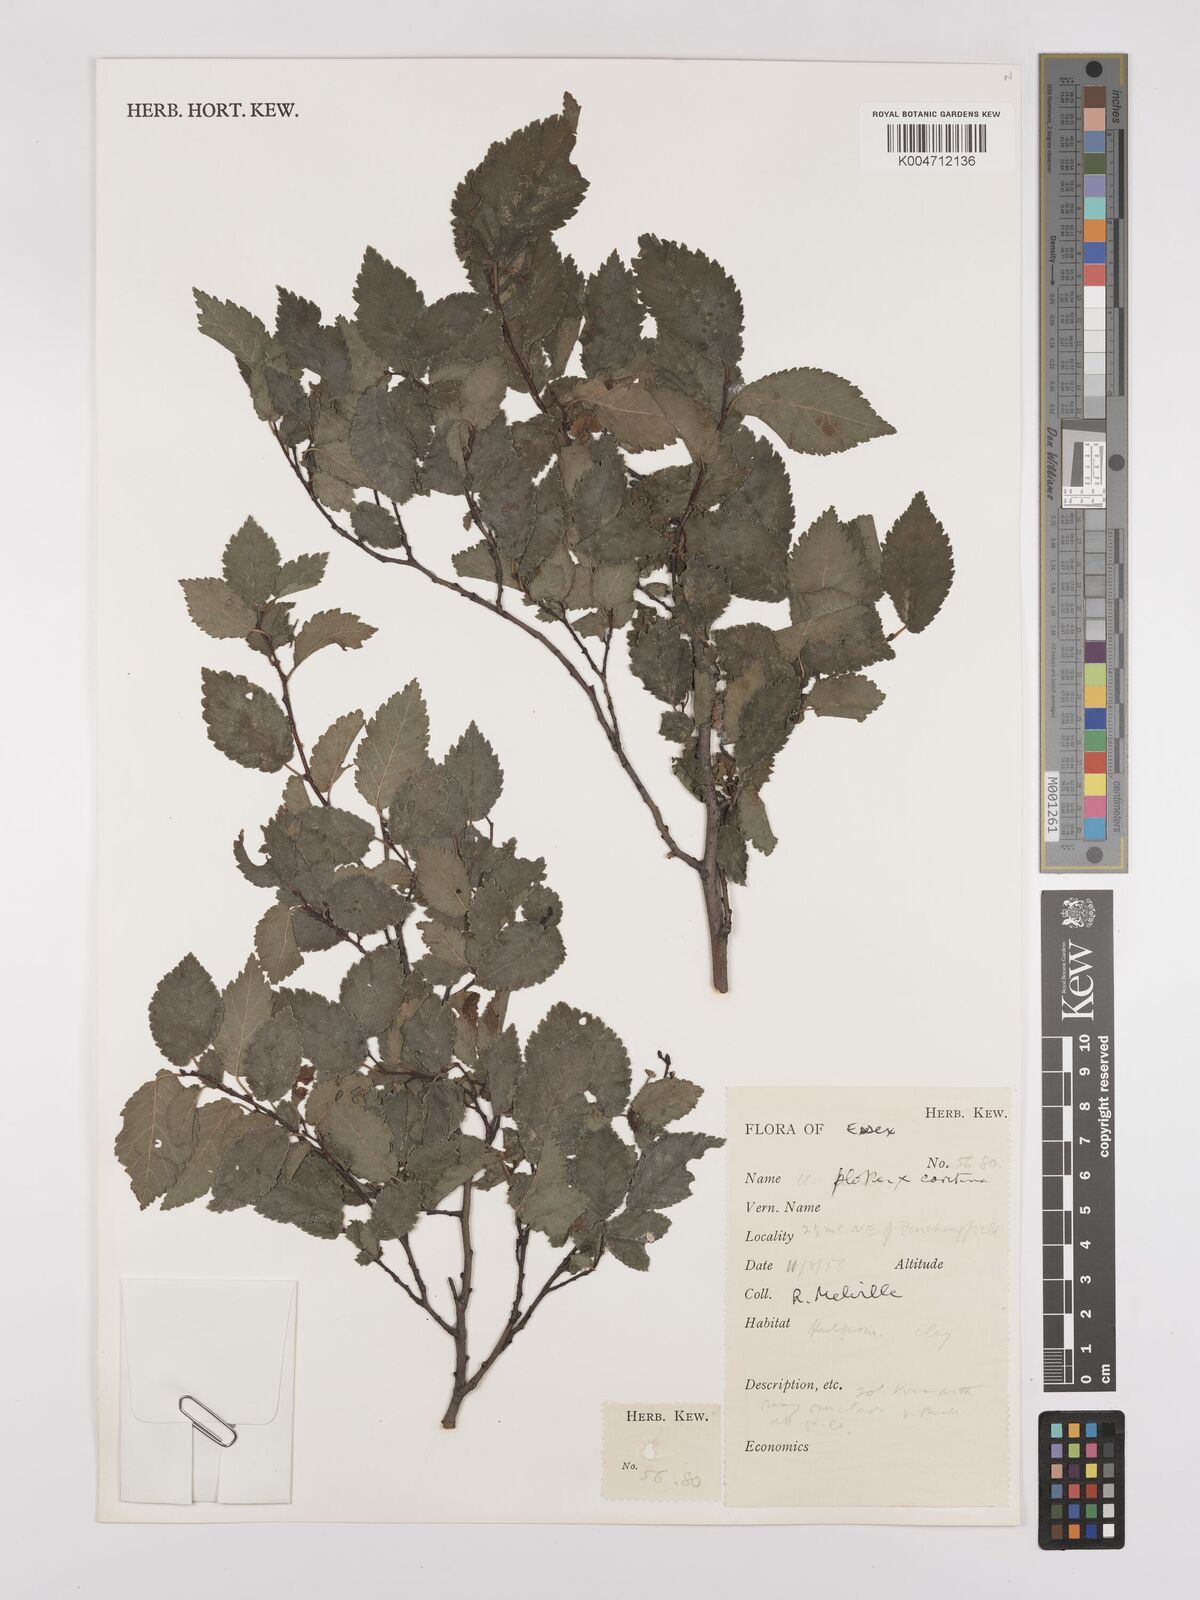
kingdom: Plantae
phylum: Tracheophyta
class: Magnoliopsida
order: Rosales
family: Ulmaceae
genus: Ulmus
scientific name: Ulmus minor
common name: Small-leaved elm
